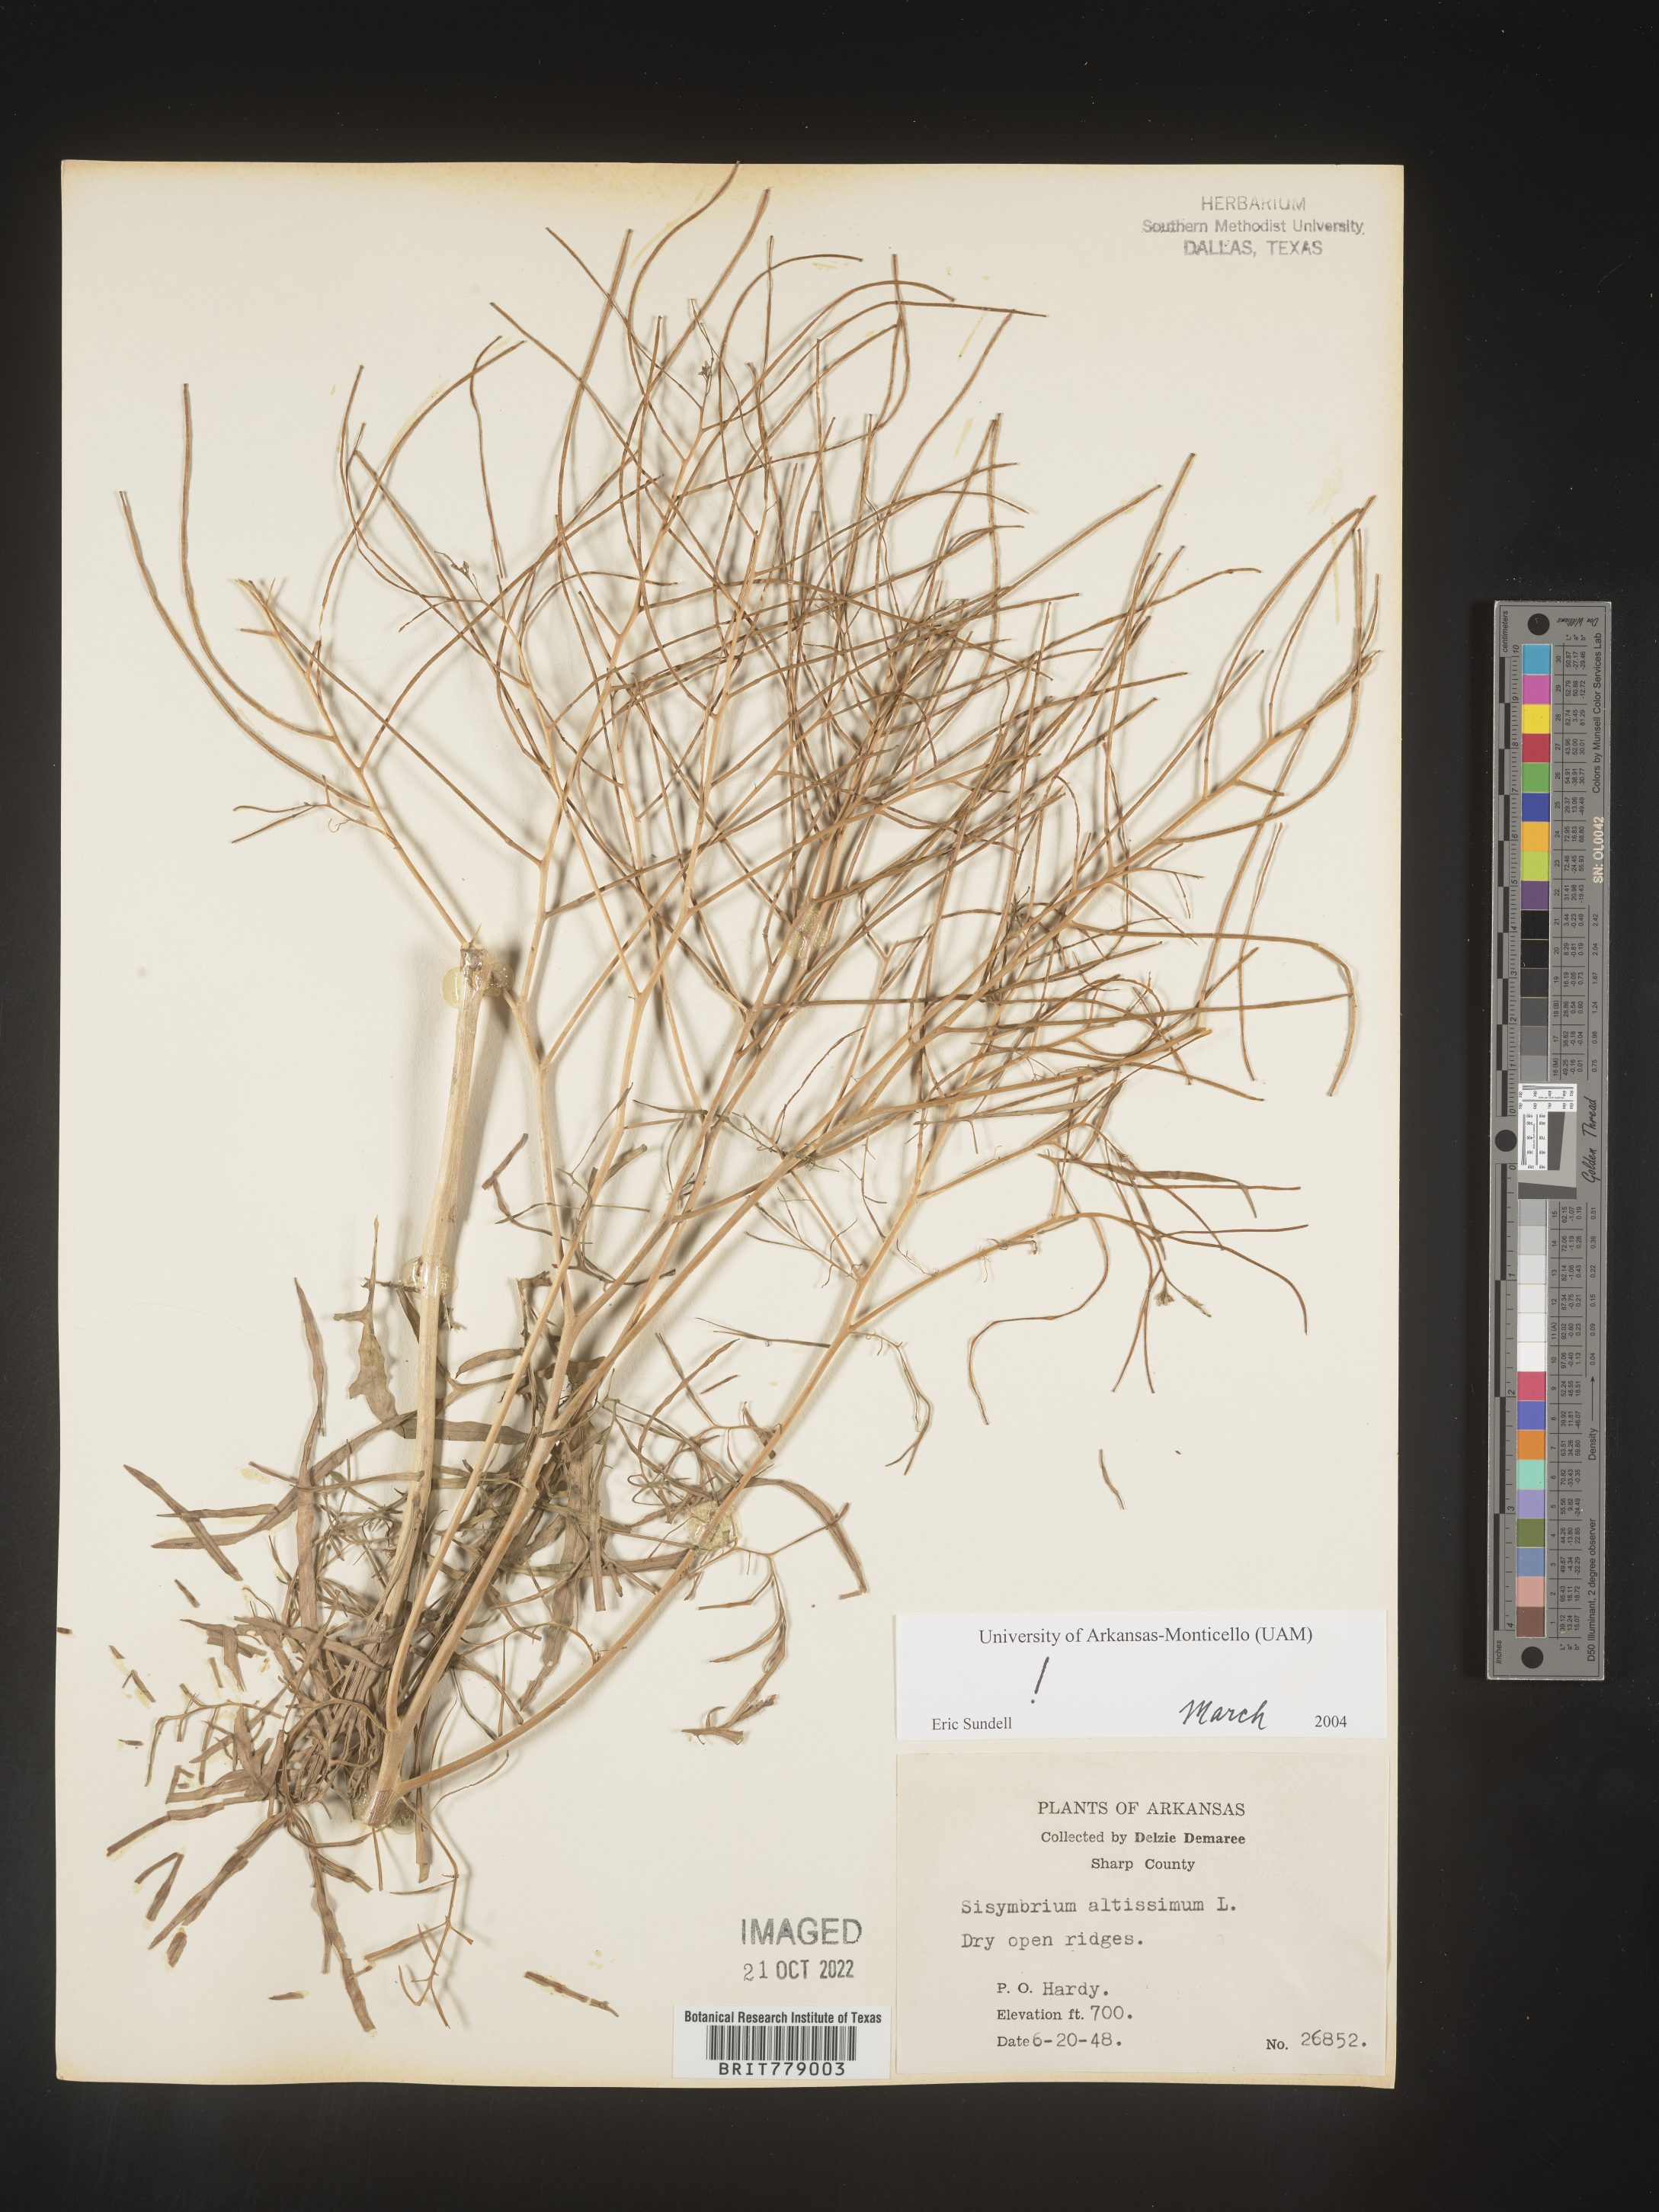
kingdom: Plantae
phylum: Tracheophyta
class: Magnoliopsida
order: Brassicales
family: Brassicaceae
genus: Sisymbrium
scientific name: Sisymbrium altissimum
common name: Tall rocket
